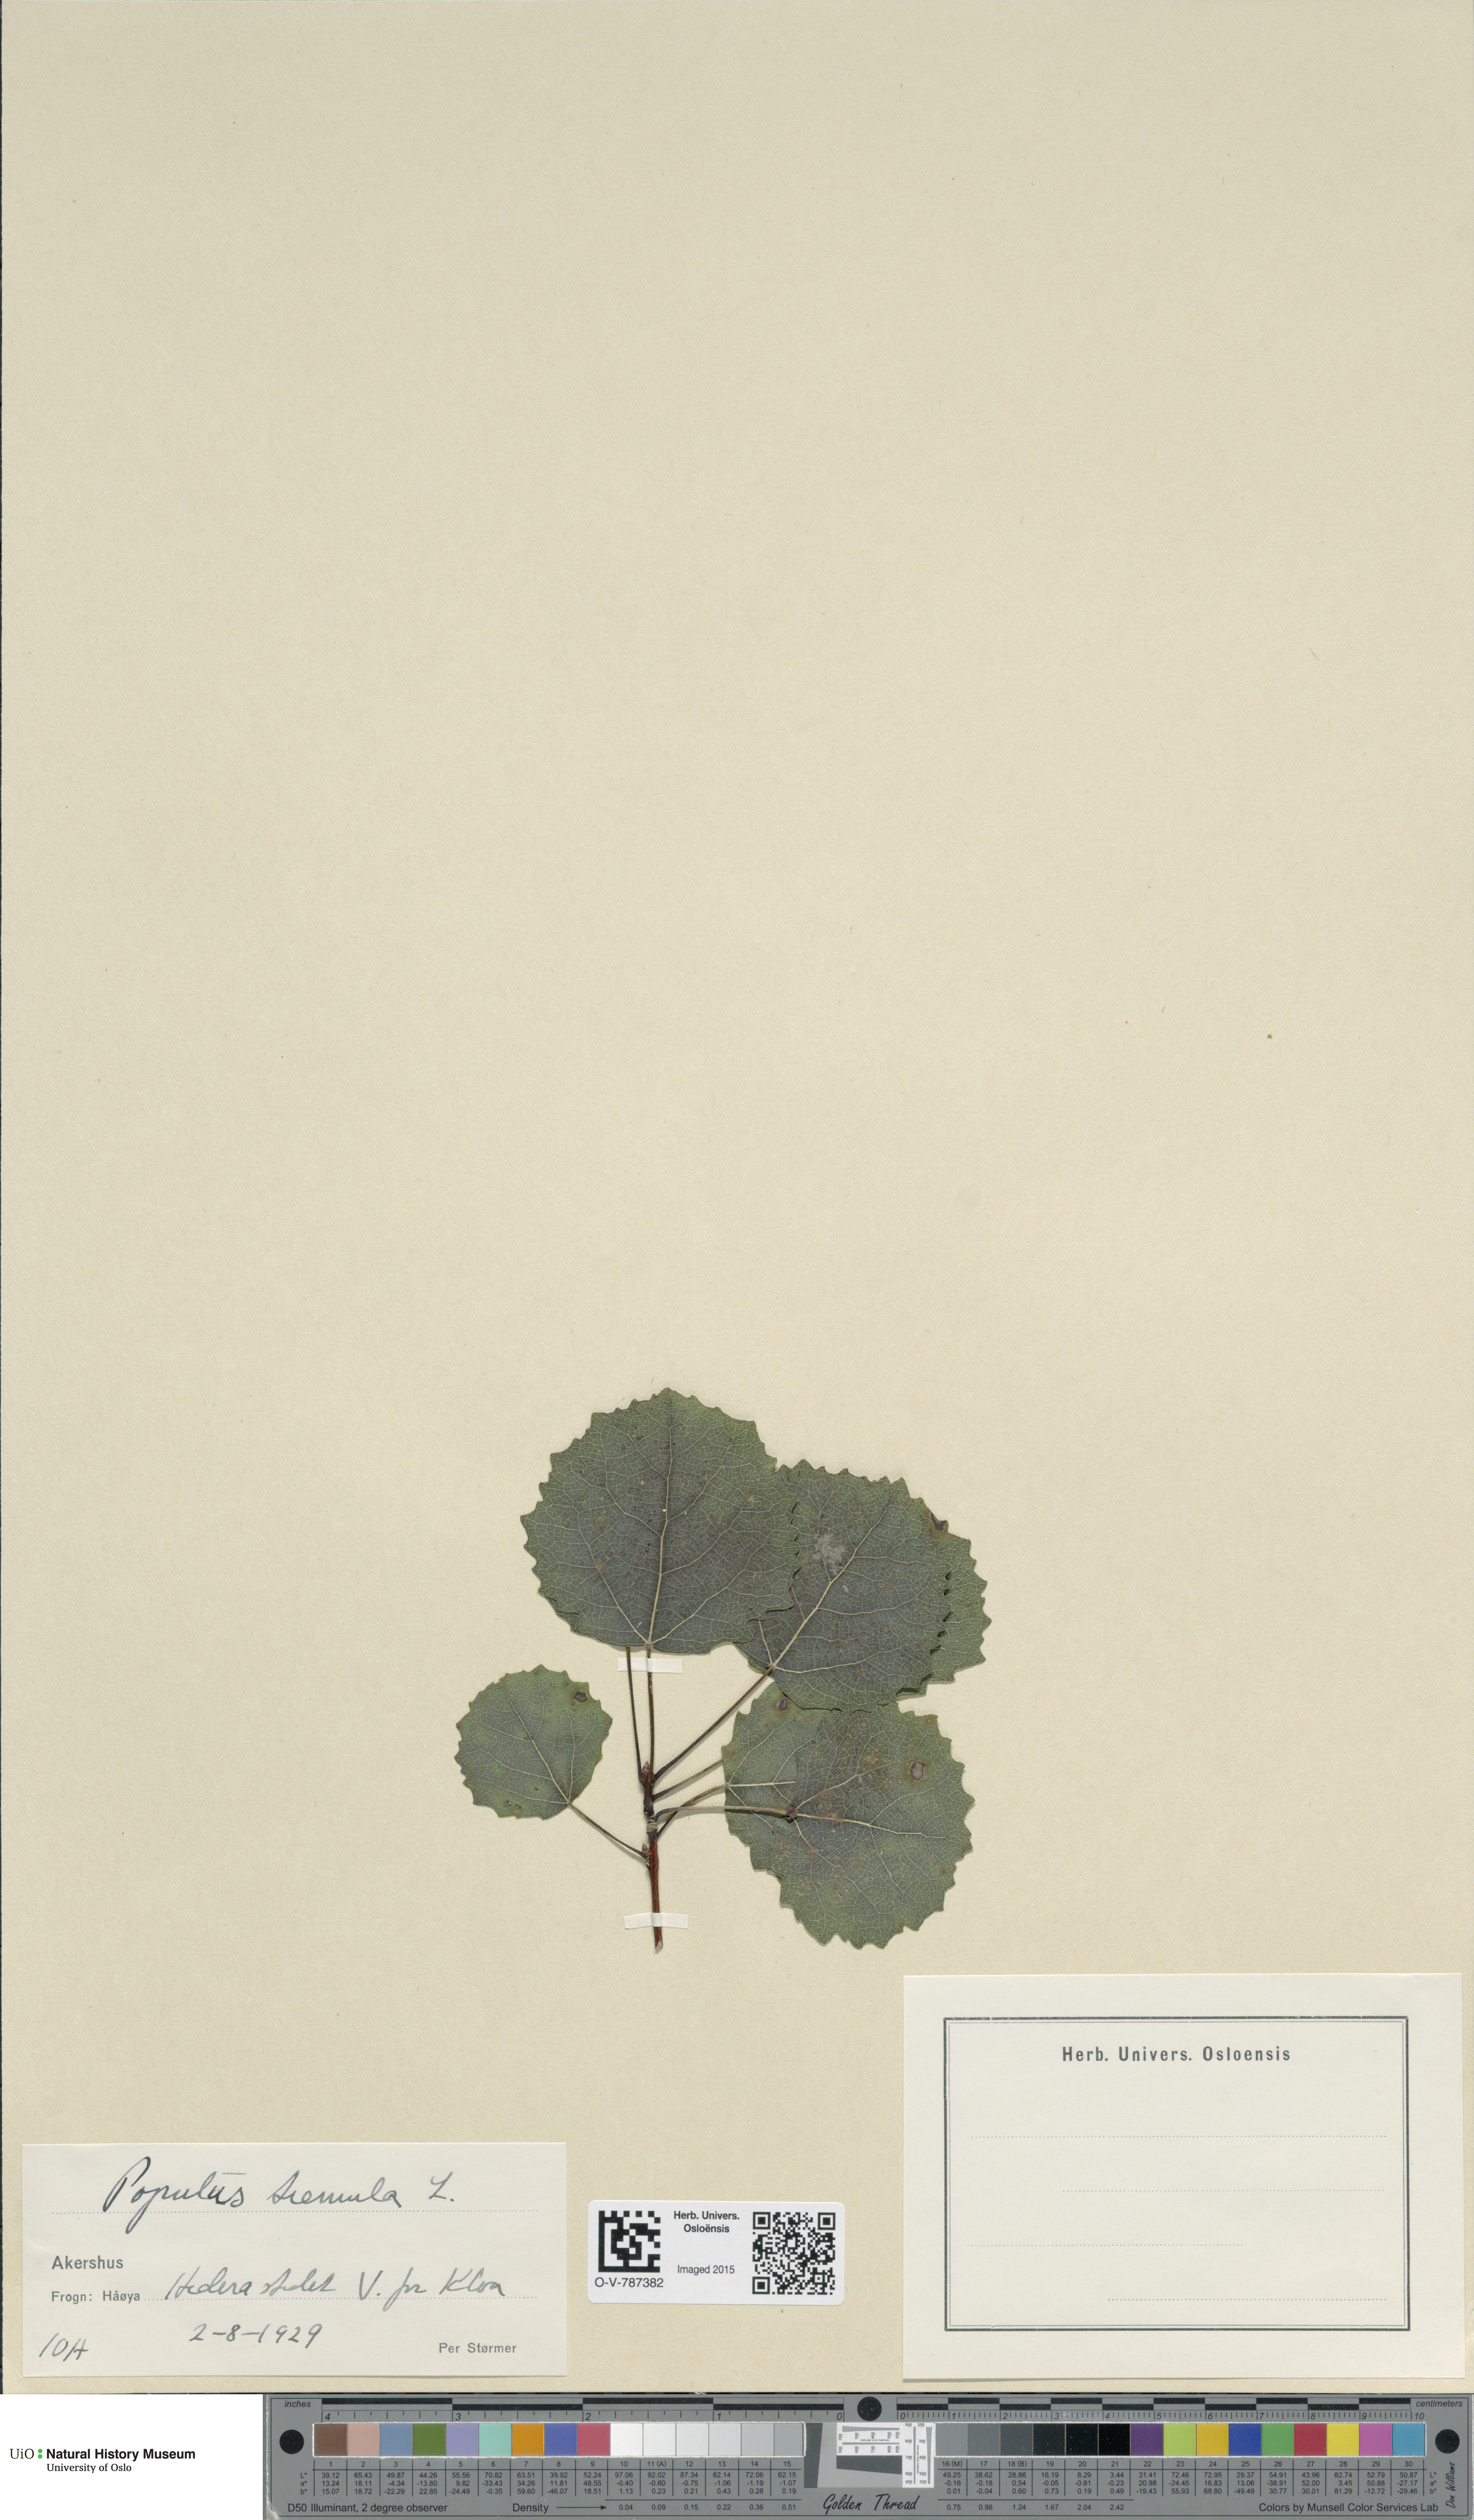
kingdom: Plantae
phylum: Tracheophyta
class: Magnoliopsida
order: Malpighiales
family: Salicaceae
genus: Populus
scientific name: Populus tremula
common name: European aspen
